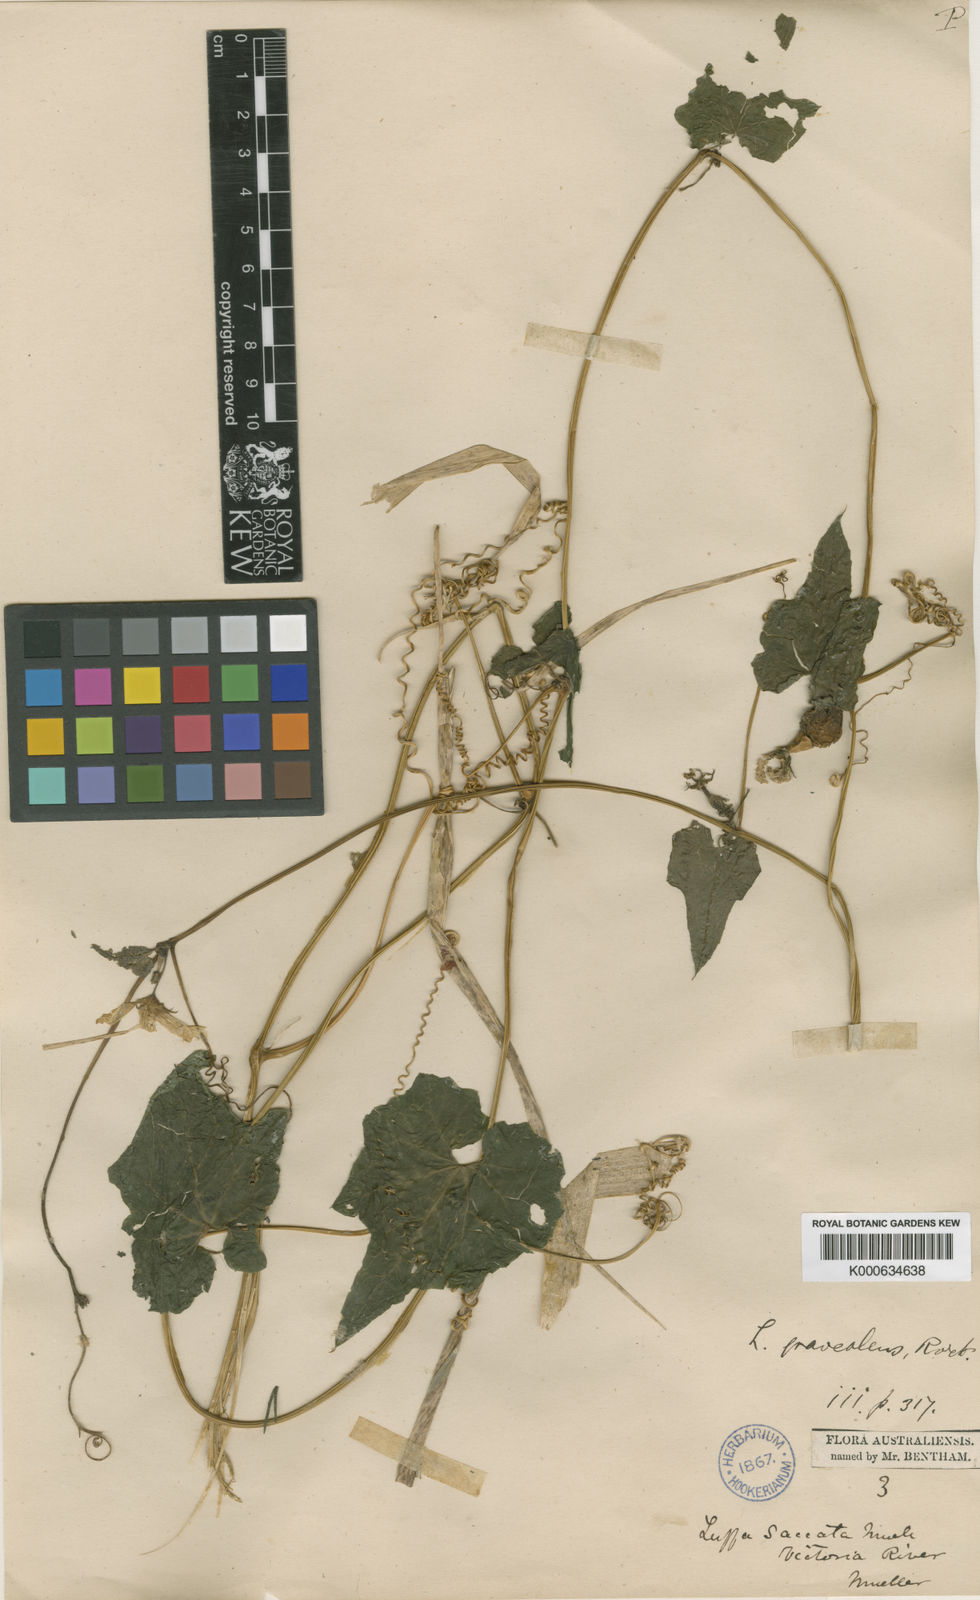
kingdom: Plantae
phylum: Tracheophyta
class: Magnoliopsida
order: Cucurbitales
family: Cucurbitaceae
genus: Luffa
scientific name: Luffa graveolens
